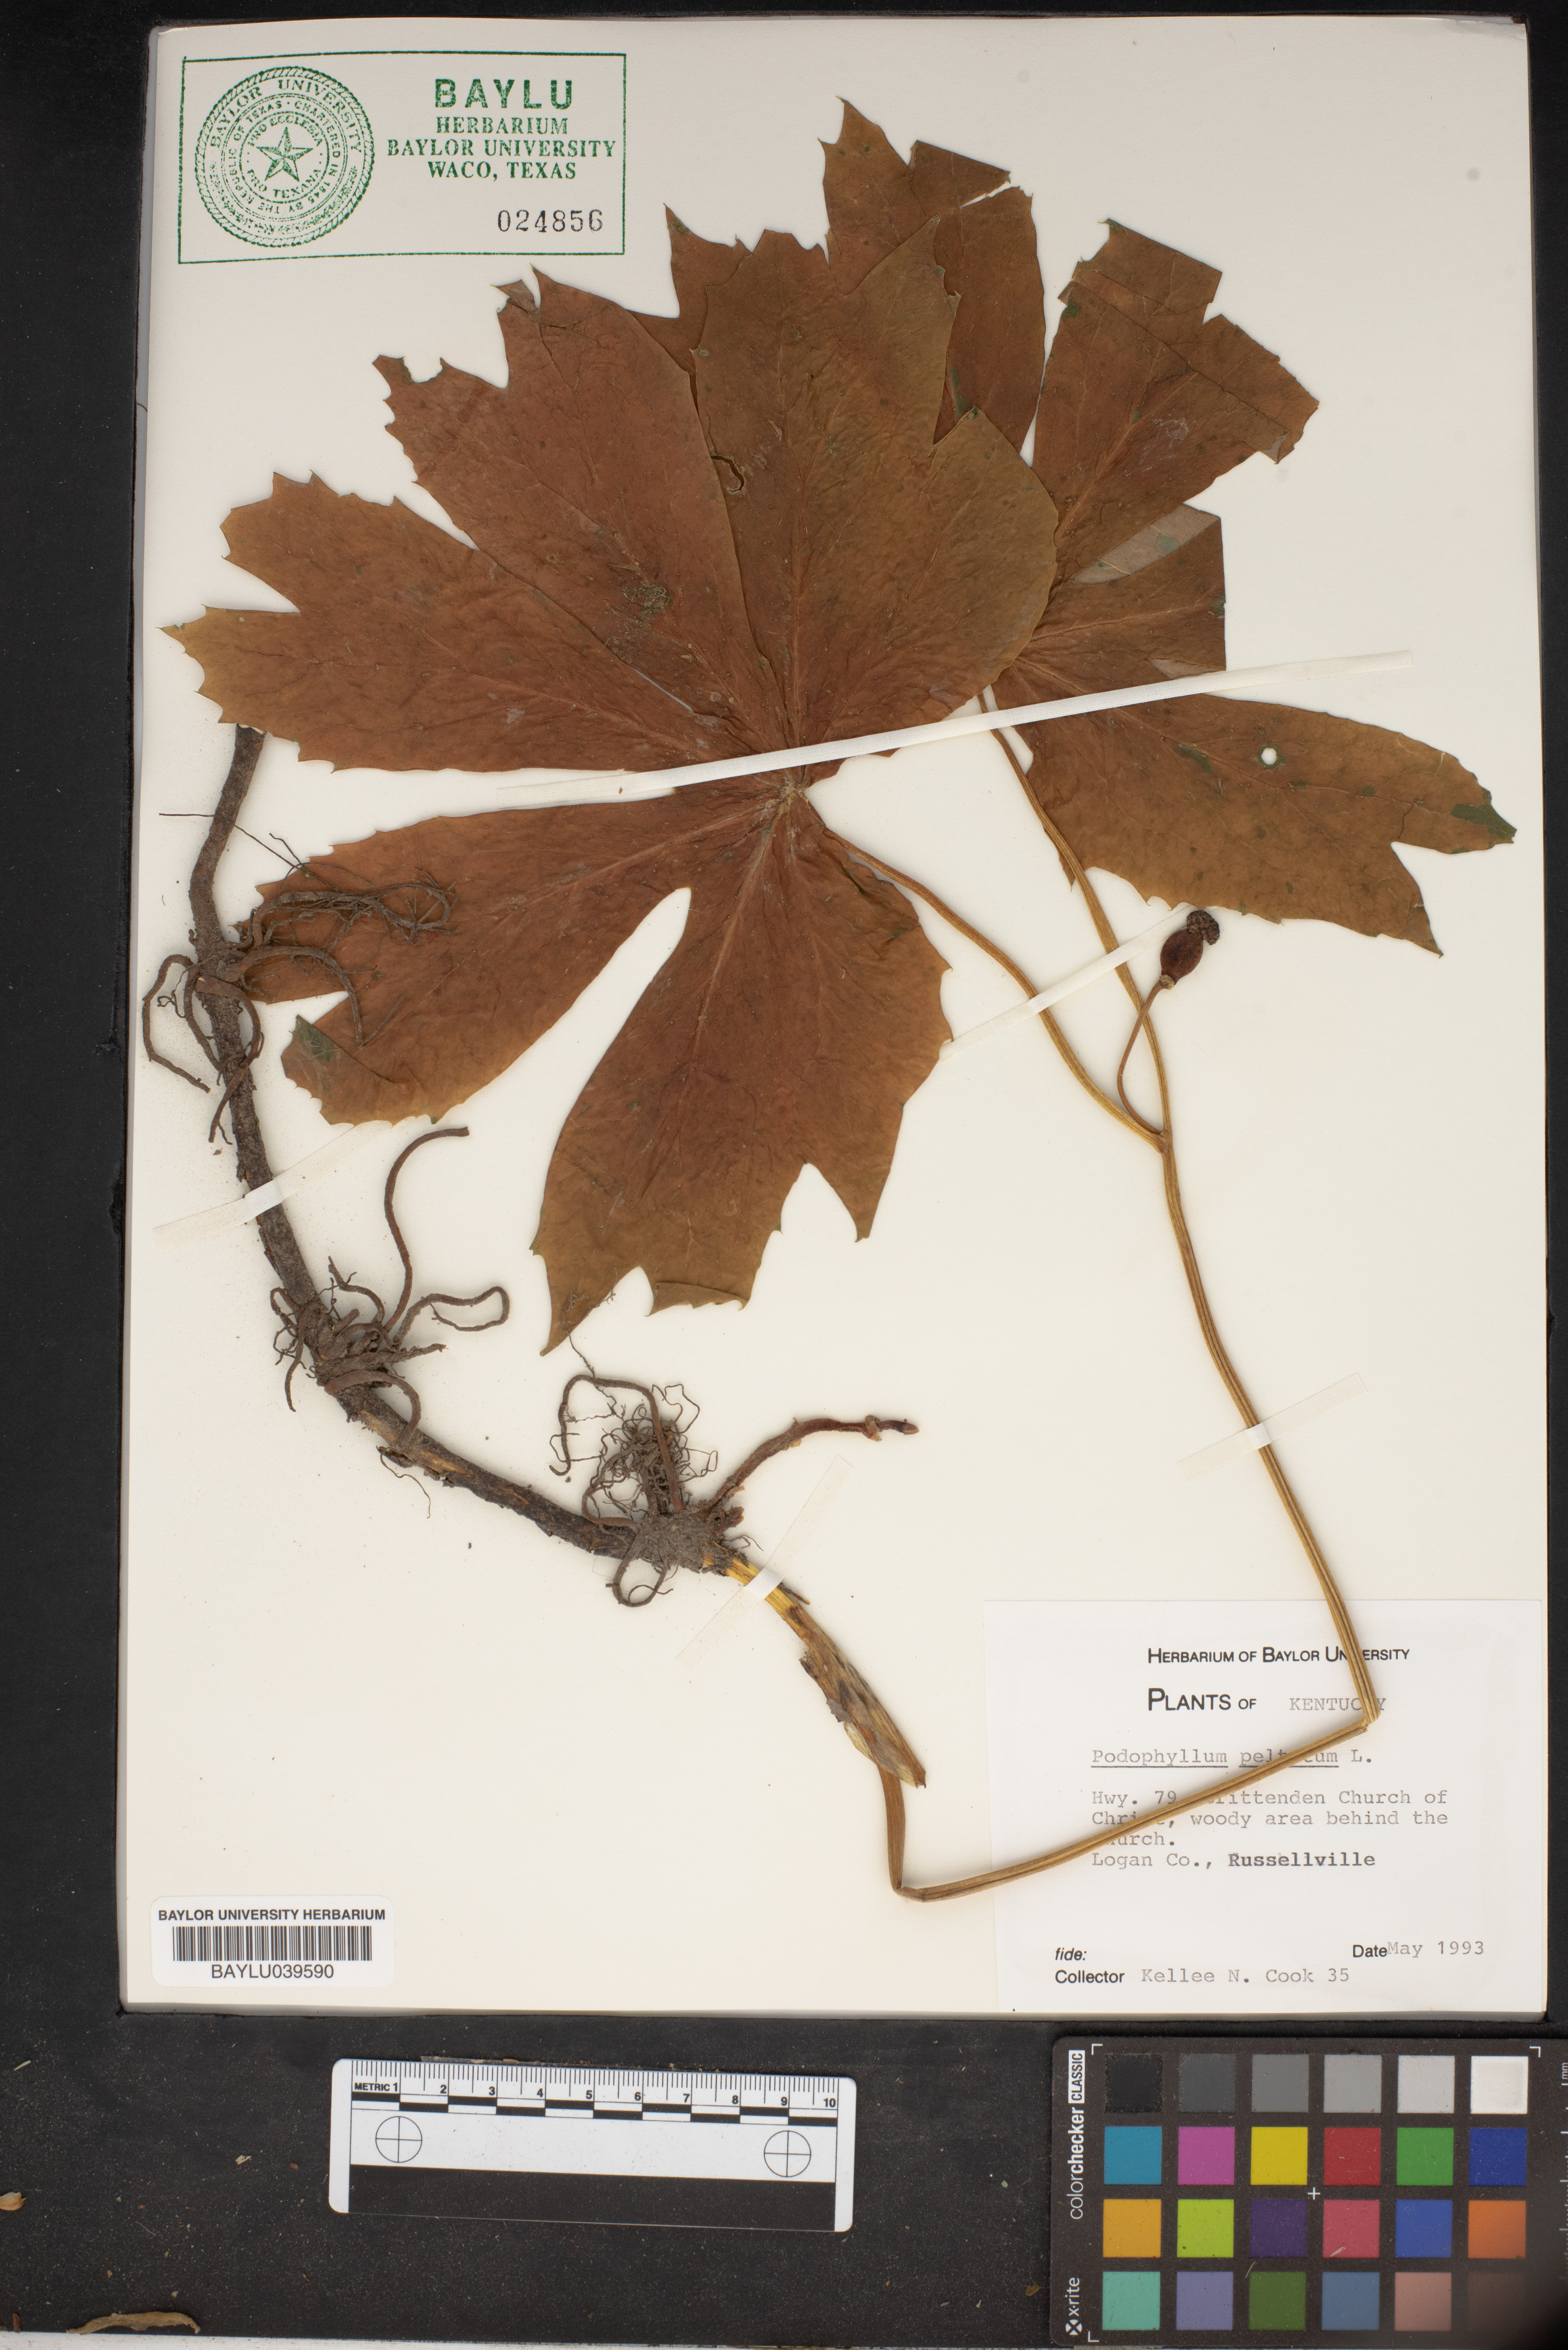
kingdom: Plantae
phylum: Tracheophyta
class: Magnoliopsida
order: Ranunculales
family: Berberidaceae
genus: Podophyllum
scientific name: Podophyllum peltatum
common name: Wild mandrake
